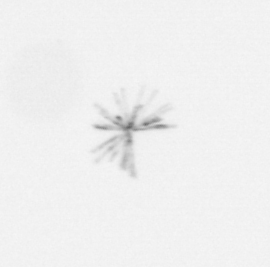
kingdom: Chromista
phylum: Ochrophyta
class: Bacillariophyceae
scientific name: Bacillariophyceae
